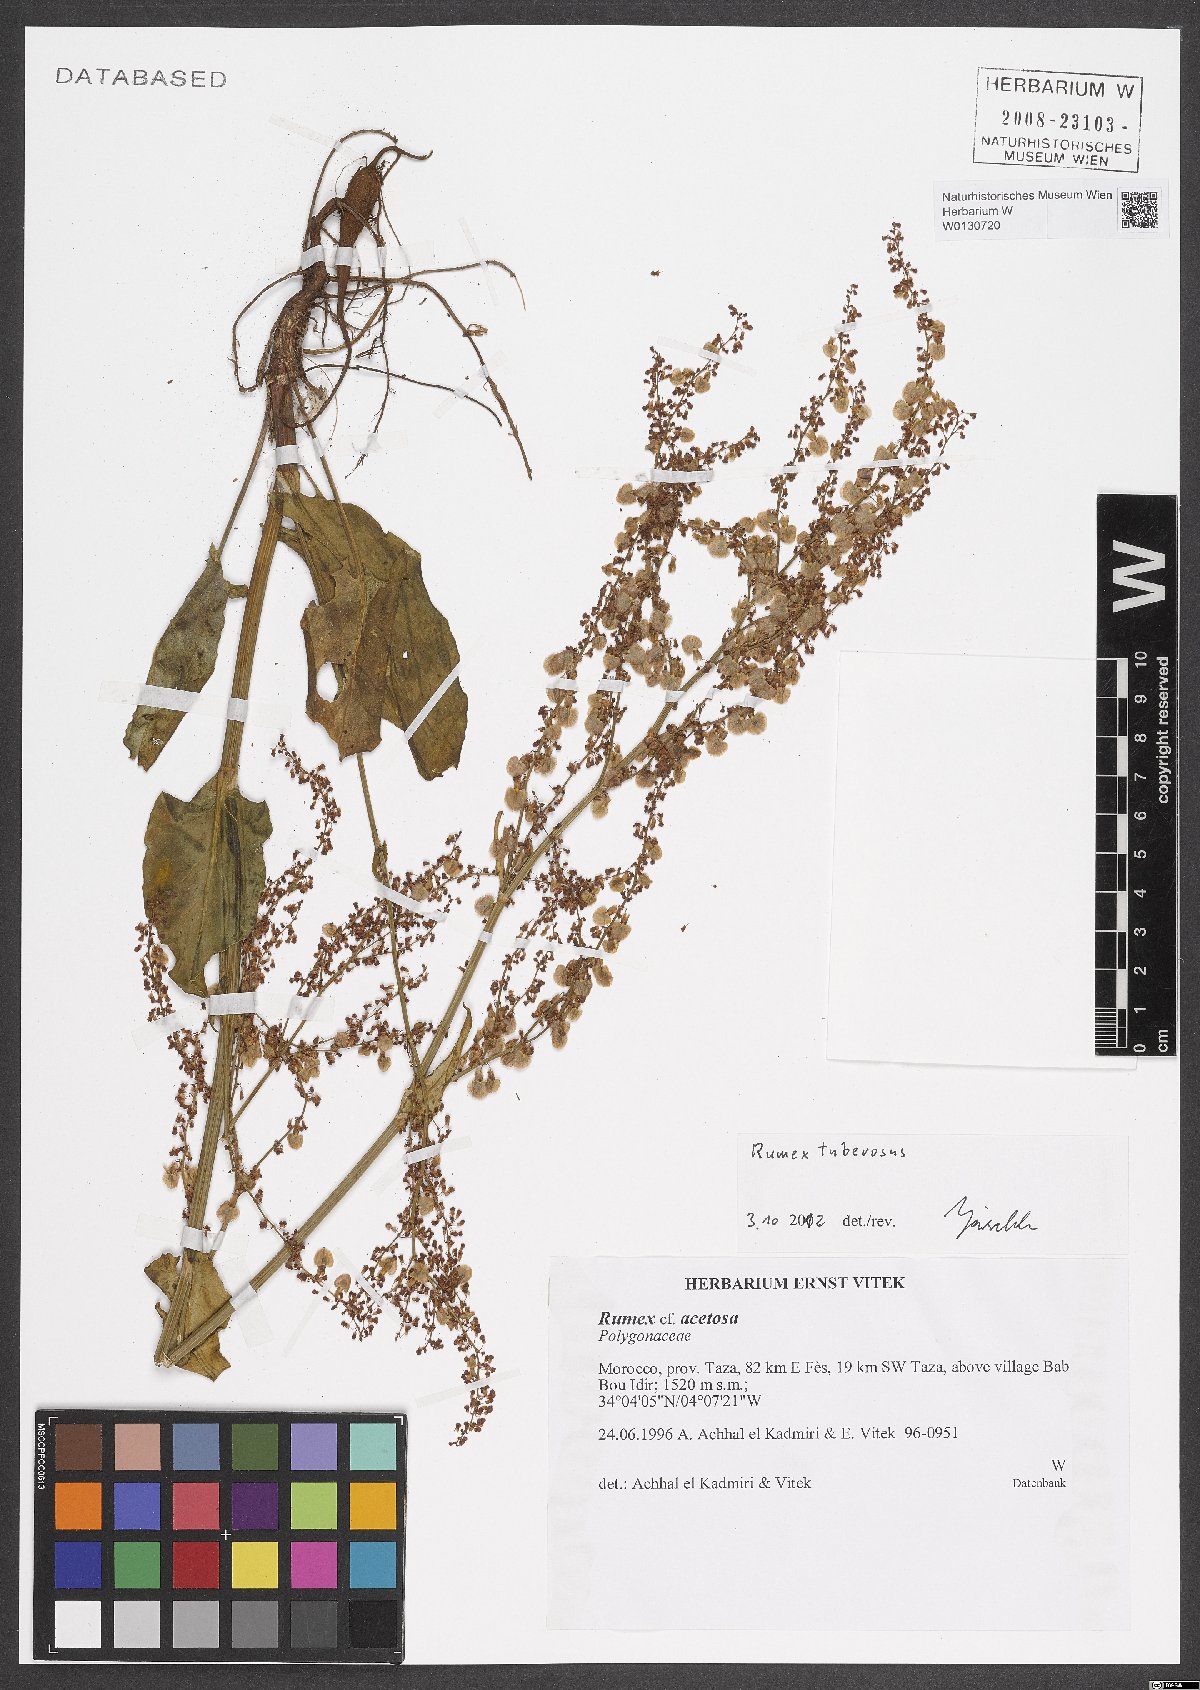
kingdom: Plantae
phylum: Tracheophyta
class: Magnoliopsida
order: Caryophyllales
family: Polygonaceae
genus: Rumex
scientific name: Rumex tuberosus
